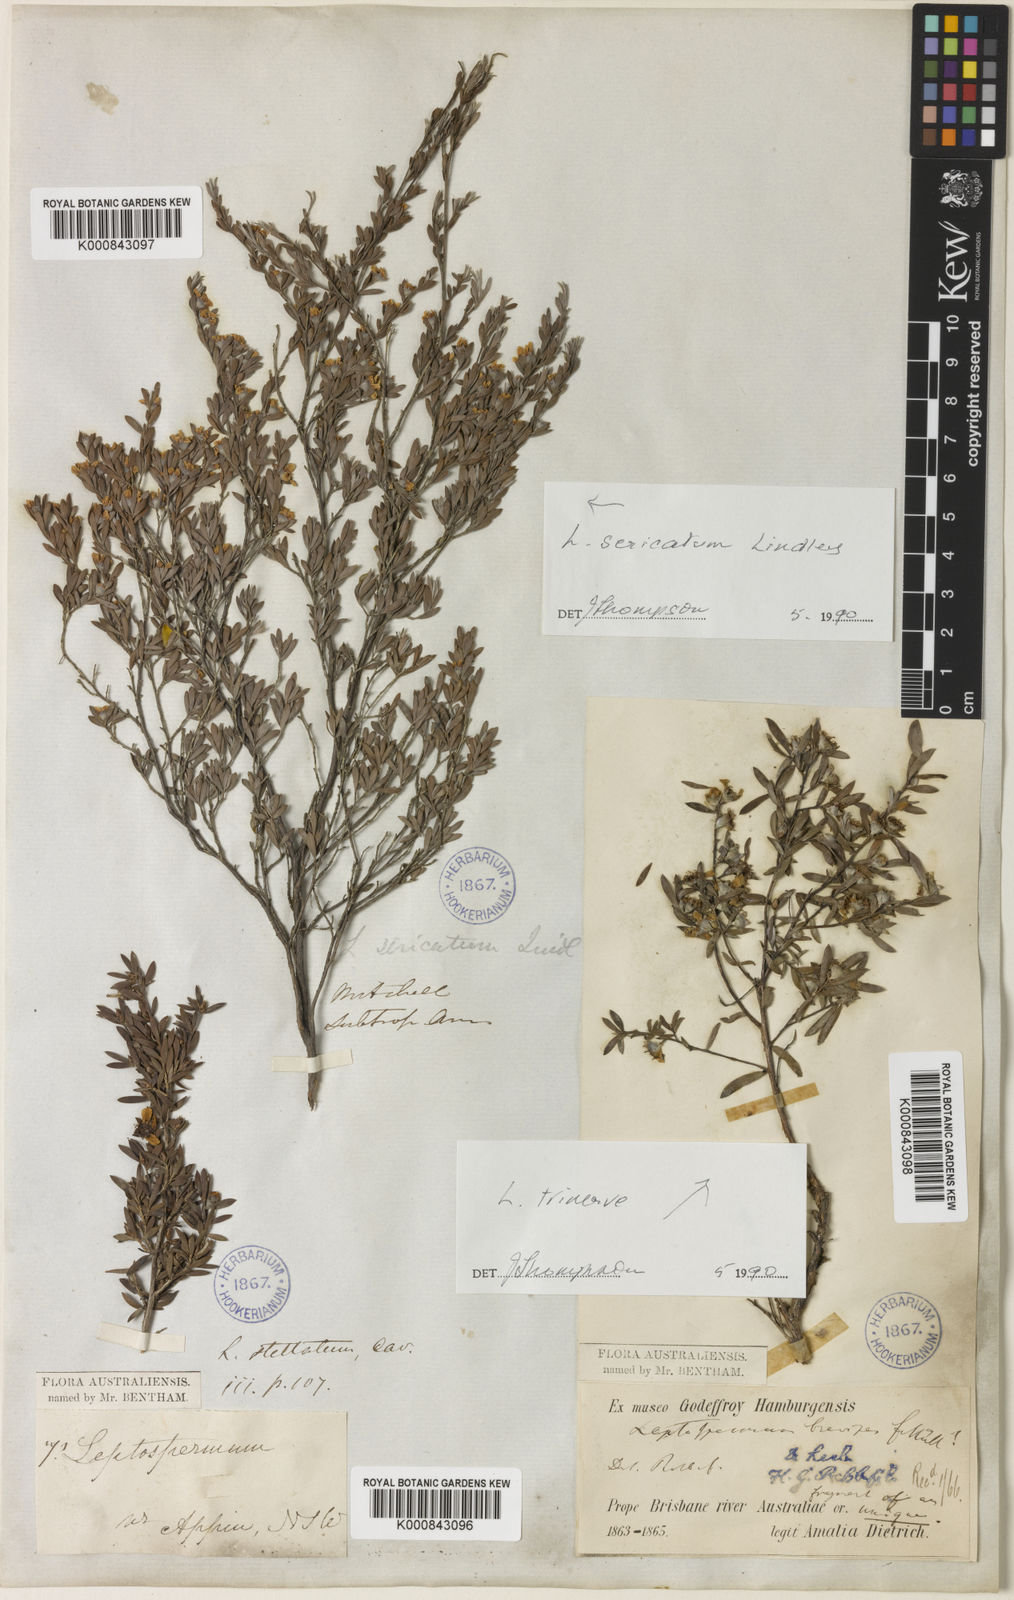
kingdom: Plantae
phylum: Tracheophyta
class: Magnoliopsida
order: Myrtales
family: Myrtaceae
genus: Leptospermum
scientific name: Leptospermum sericatum
